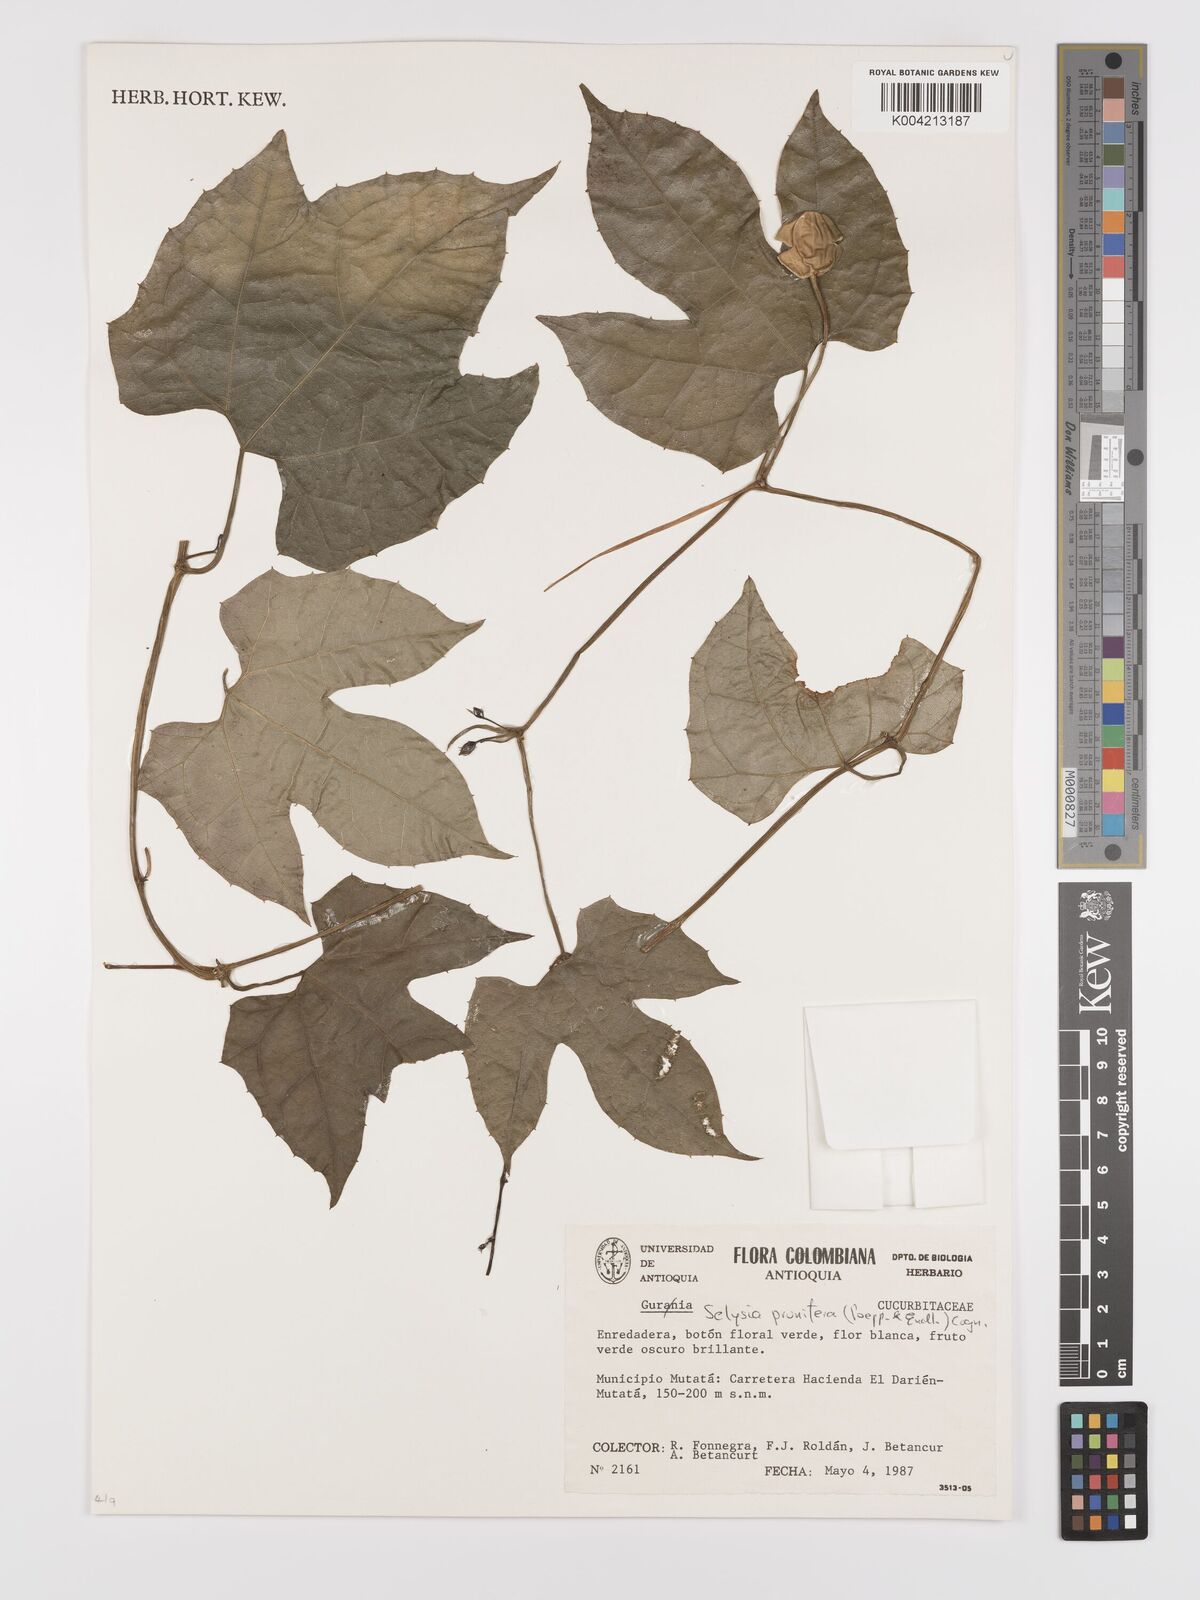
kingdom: Plantae
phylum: Tracheophyta
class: Magnoliopsida
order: Cucurbitales
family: Cucurbitaceae
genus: Cayaponia
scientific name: Cayaponia prunifera
